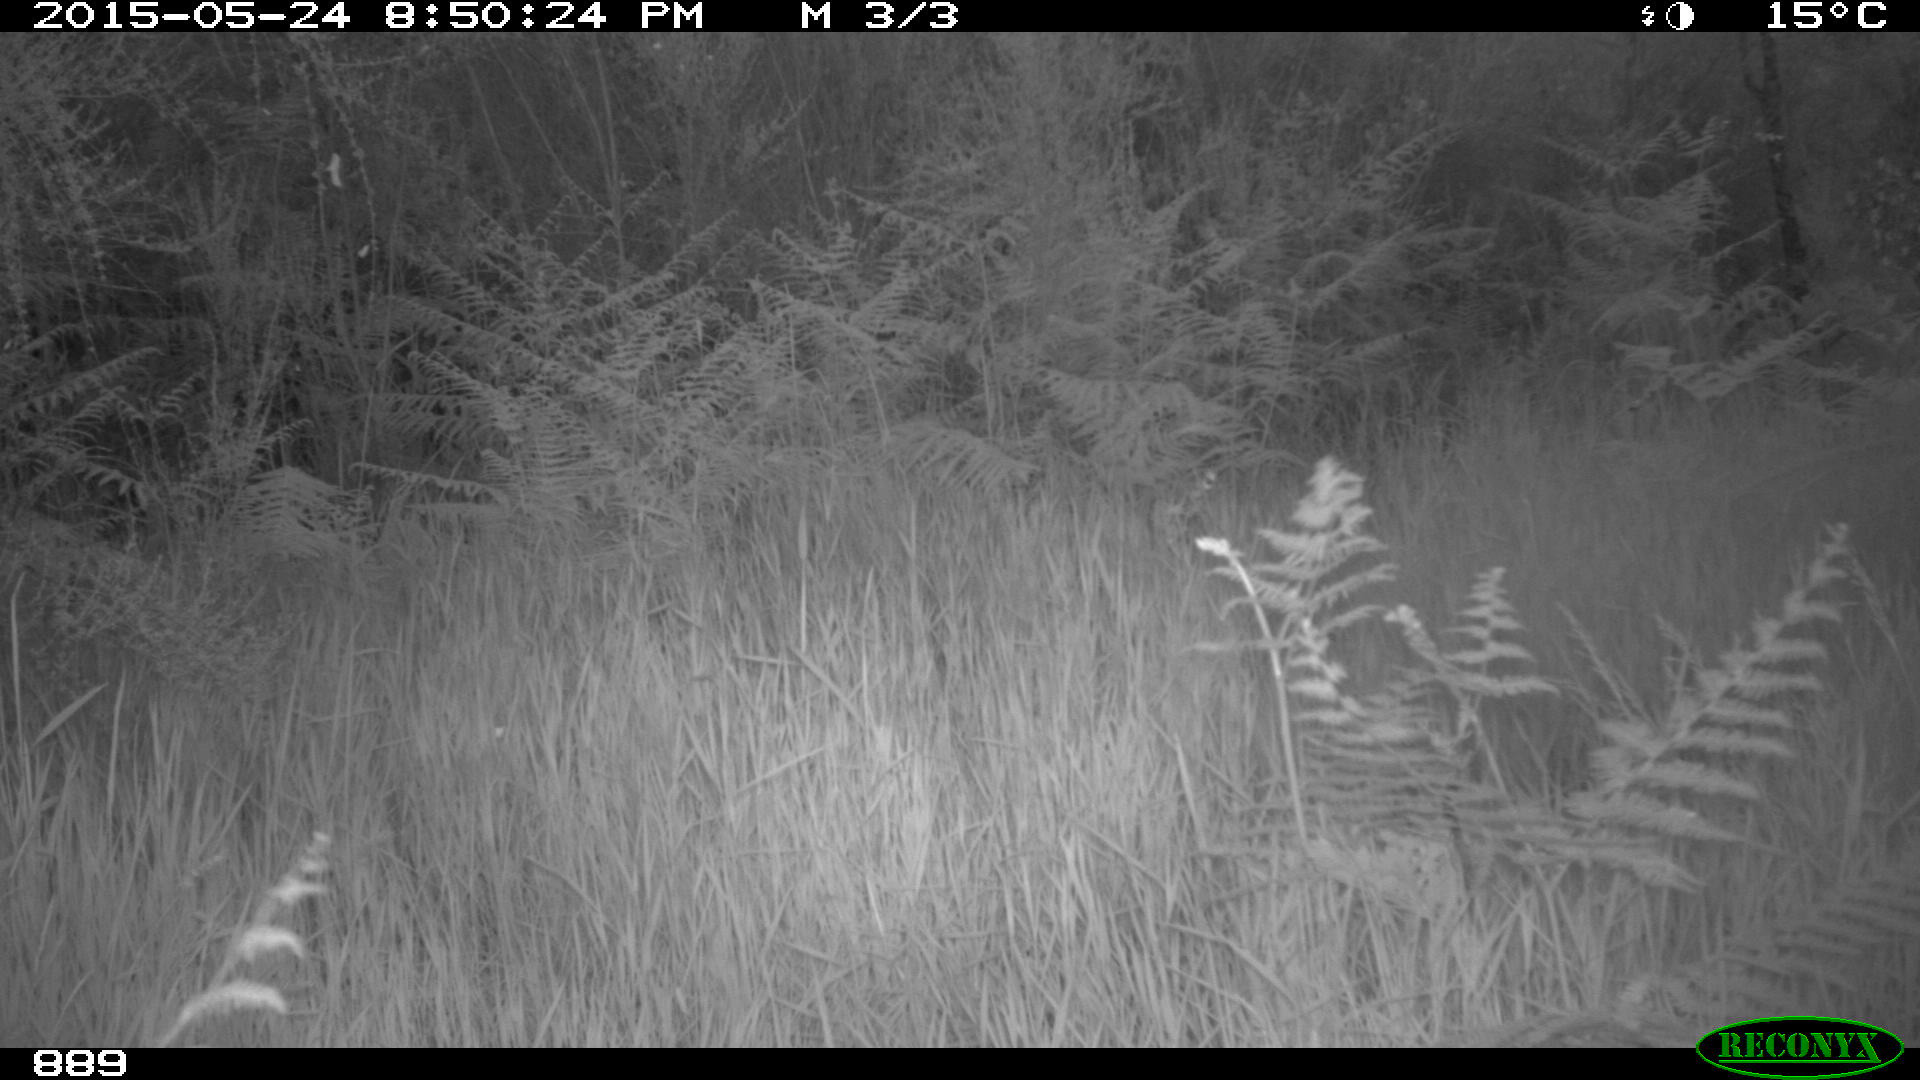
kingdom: Animalia
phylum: Chordata
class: Mammalia
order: Artiodactyla
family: Cervidae
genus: Capreolus
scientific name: Capreolus capreolus
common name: Western roe deer
